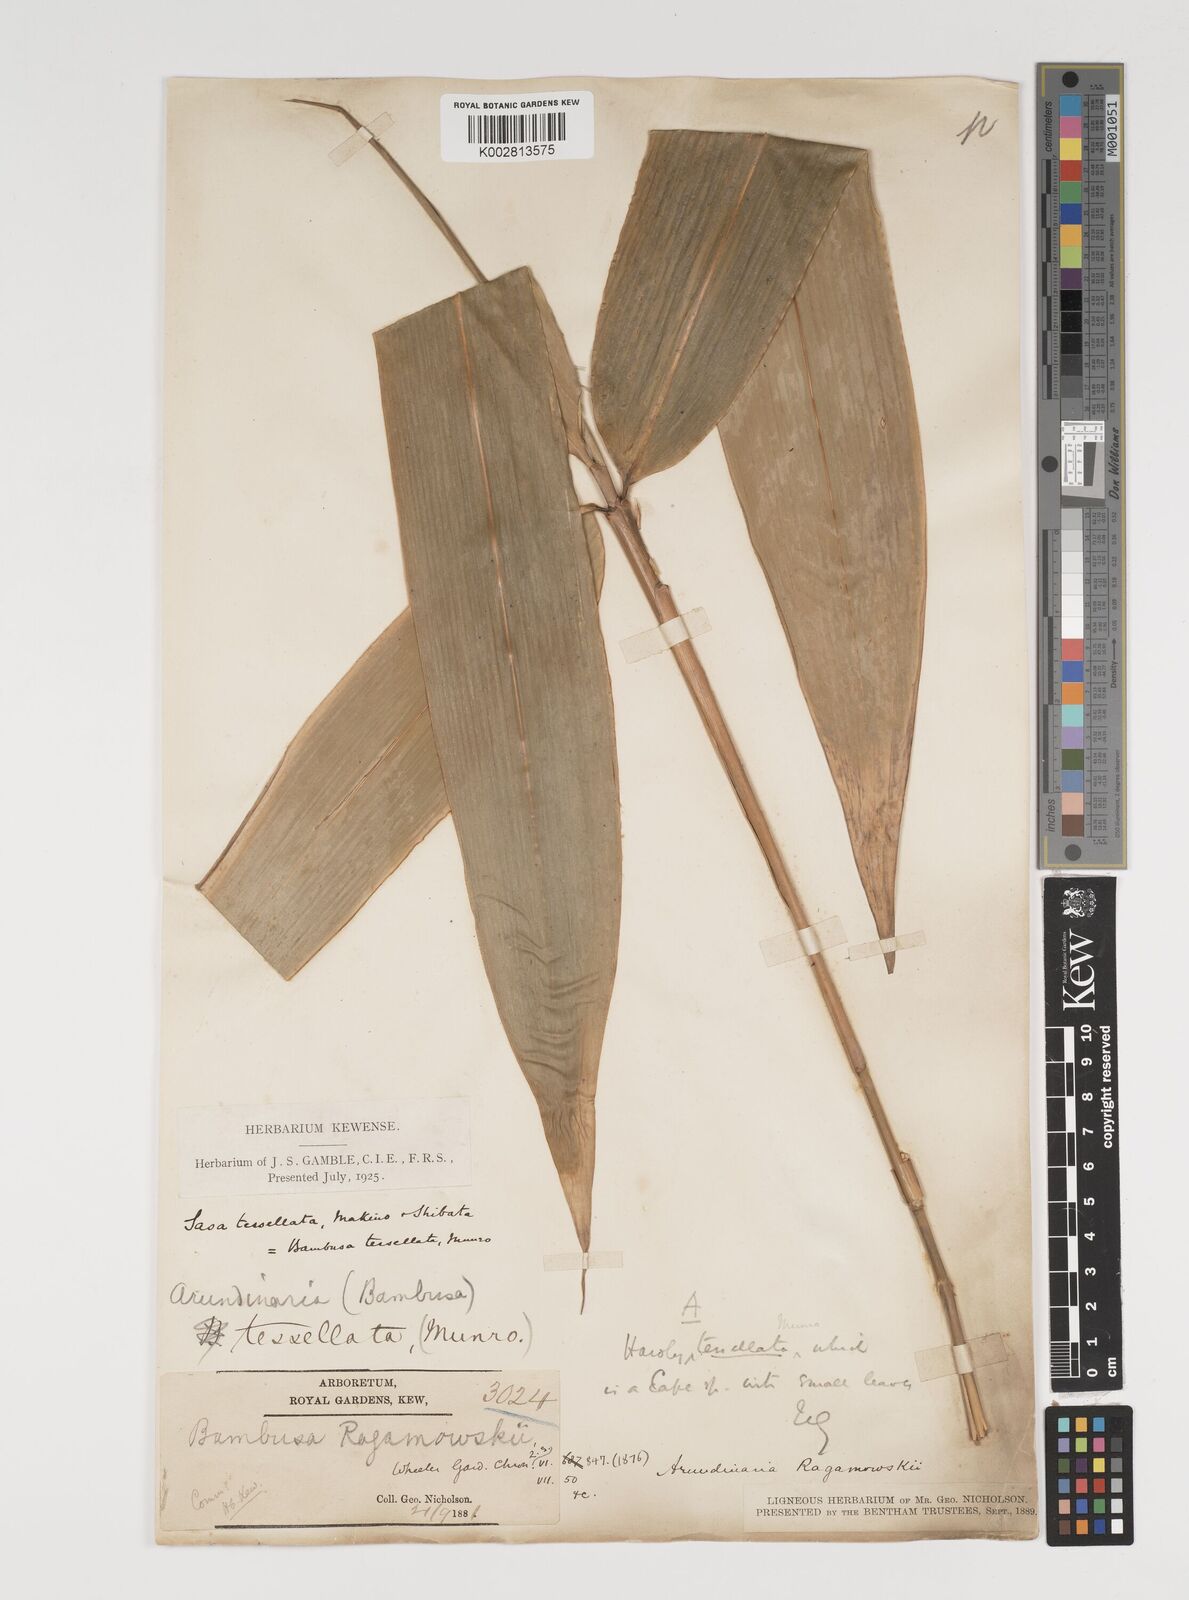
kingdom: Plantae
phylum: Tracheophyta
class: Liliopsida
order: Poales
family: Poaceae
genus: Indocalamus
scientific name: Indocalamus tessellatus
